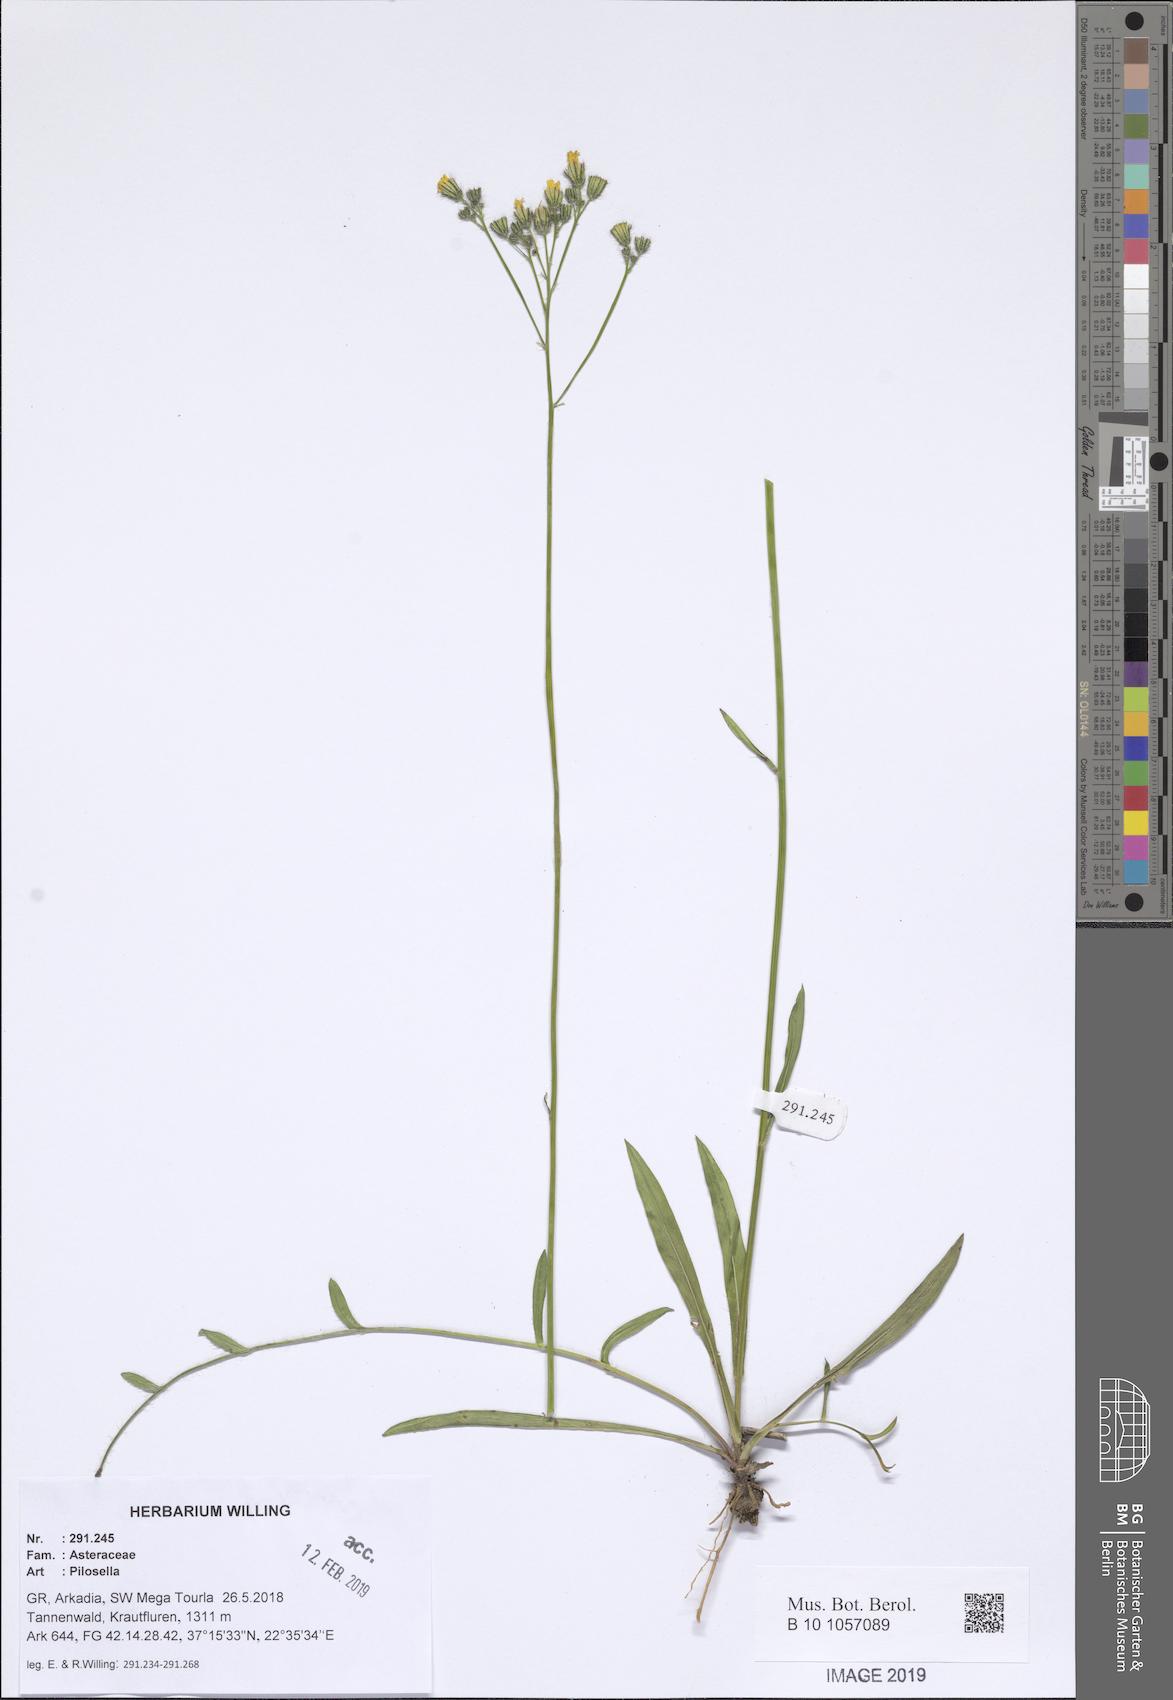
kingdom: Plantae
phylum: Tracheophyta
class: Magnoliopsida
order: Asterales
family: Asteraceae
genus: Pilosella
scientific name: Pilosella
